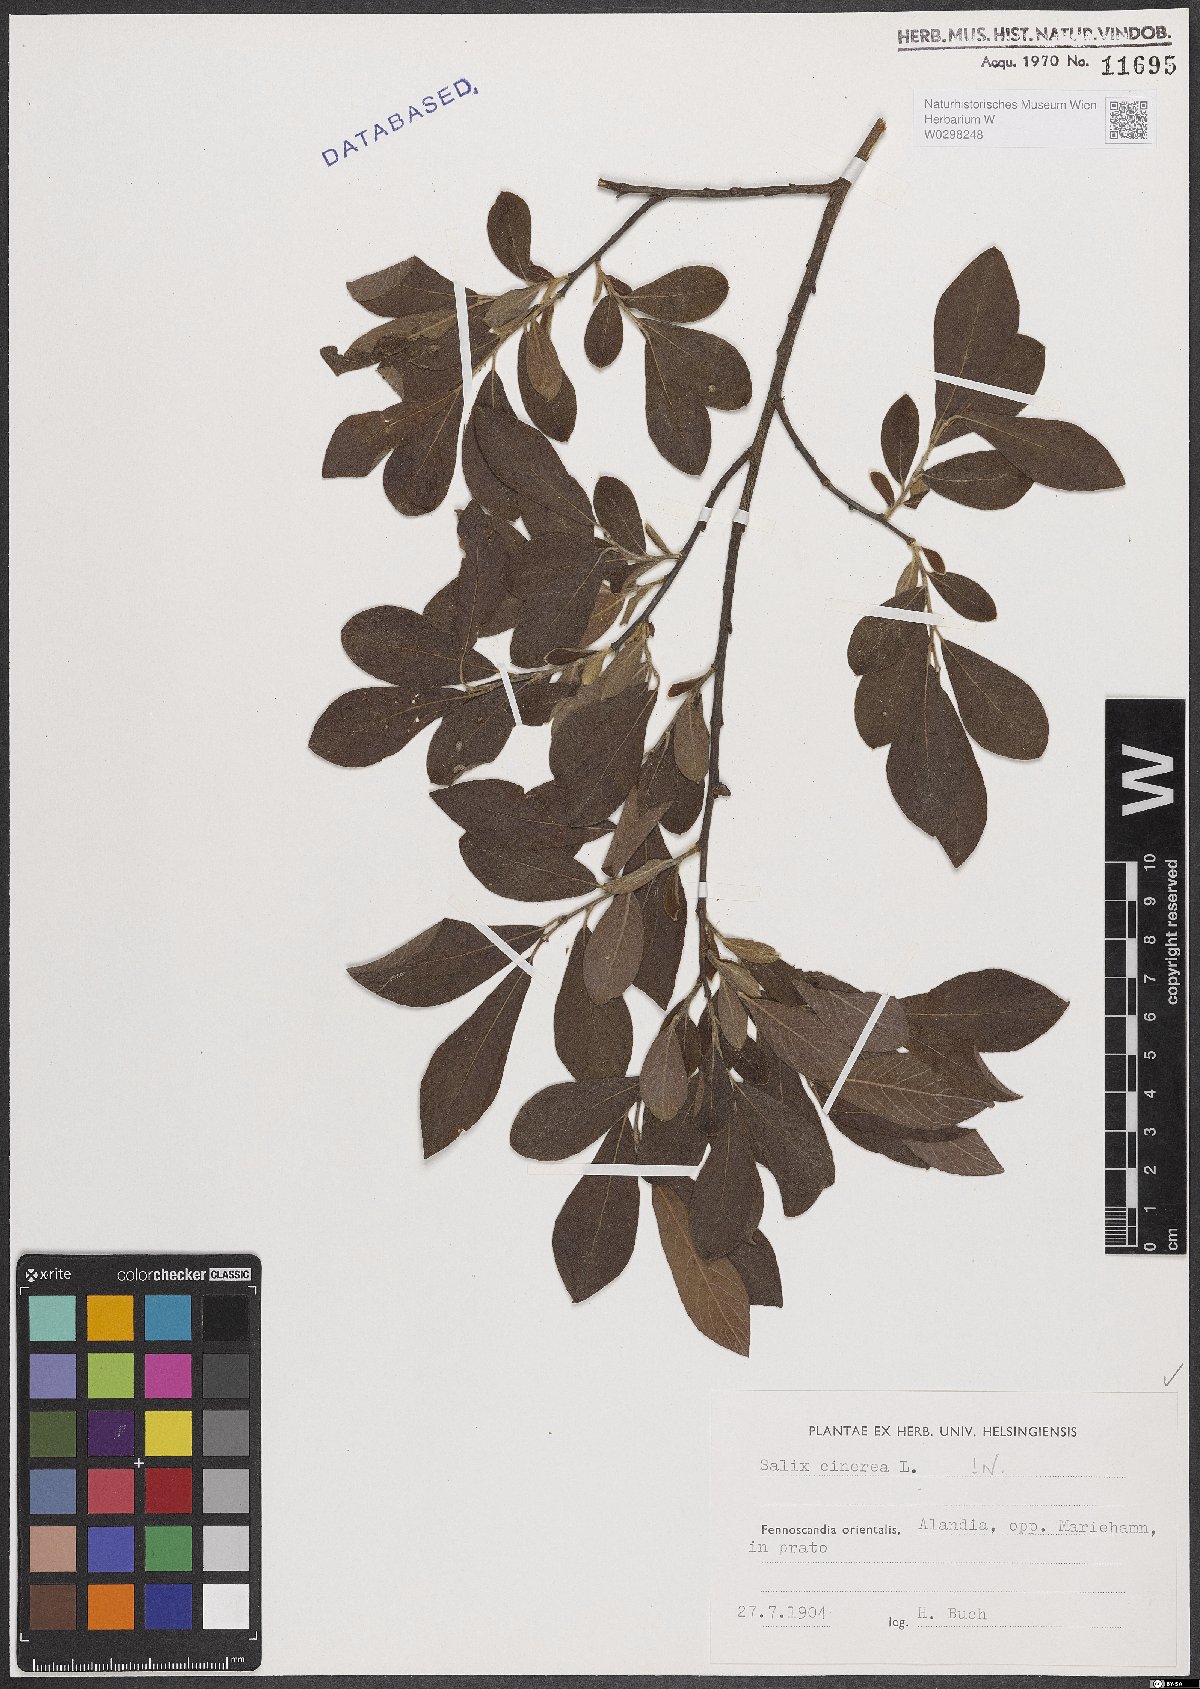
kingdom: Plantae
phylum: Tracheophyta
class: Magnoliopsida
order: Malpighiales
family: Salicaceae
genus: Salix
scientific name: Salix cinerea
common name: Common sallow
